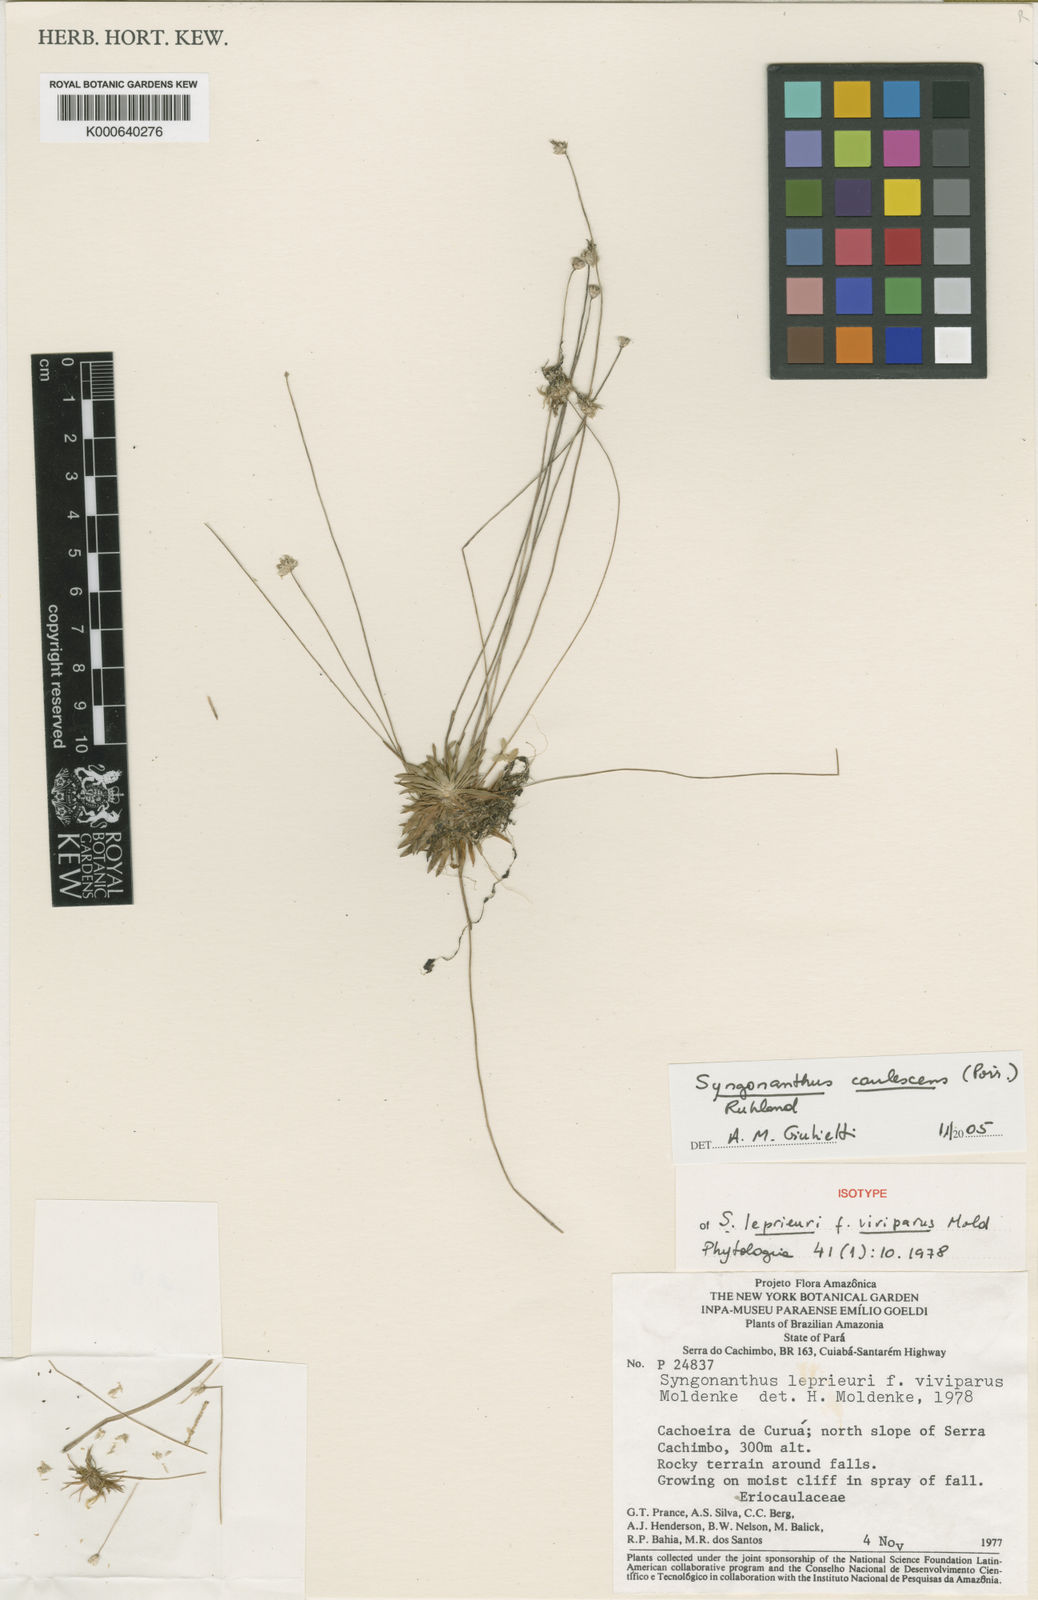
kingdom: Plantae
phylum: Tracheophyta
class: Liliopsida
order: Poales
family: Eriocaulaceae
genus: Syngonanthus
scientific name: Syngonanthus caulescens
